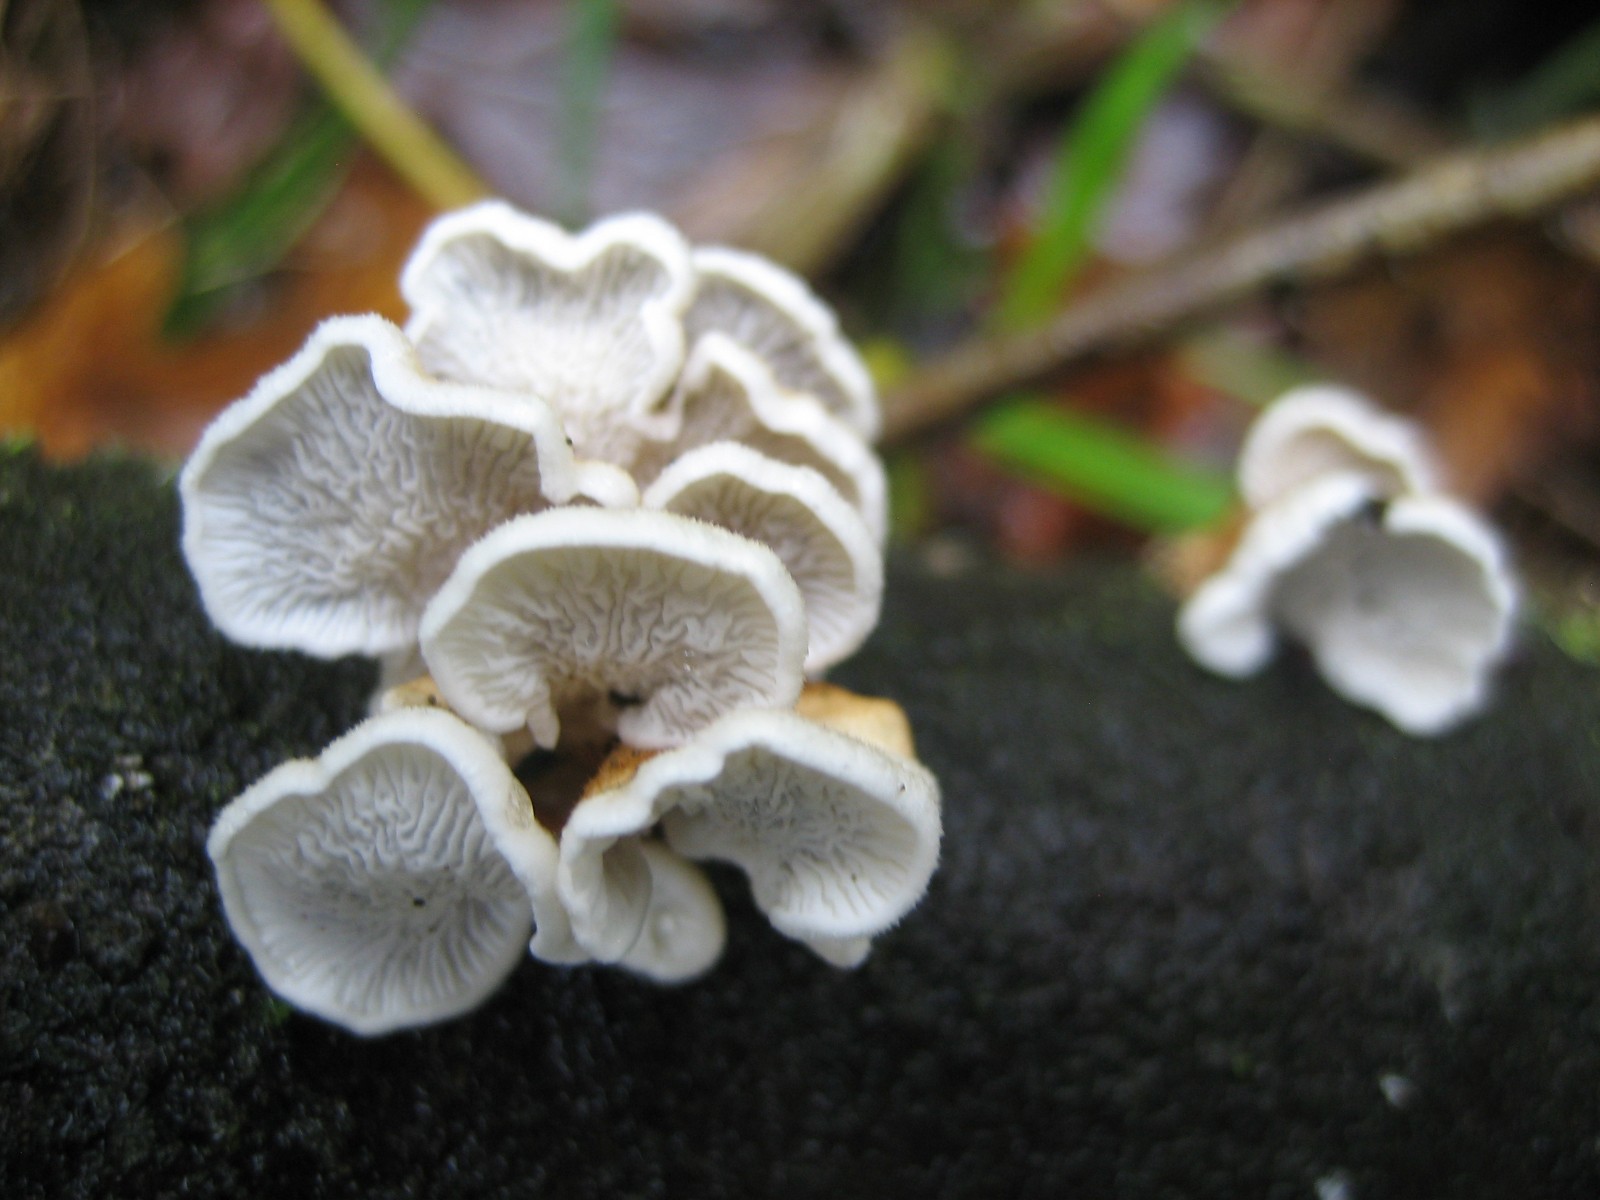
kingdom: Fungi
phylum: Basidiomycota
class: Agaricomycetes
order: Amylocorticiales
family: Amylocorticiaceae
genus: Plicaturopsis
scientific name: Plicaturopsis crispa
